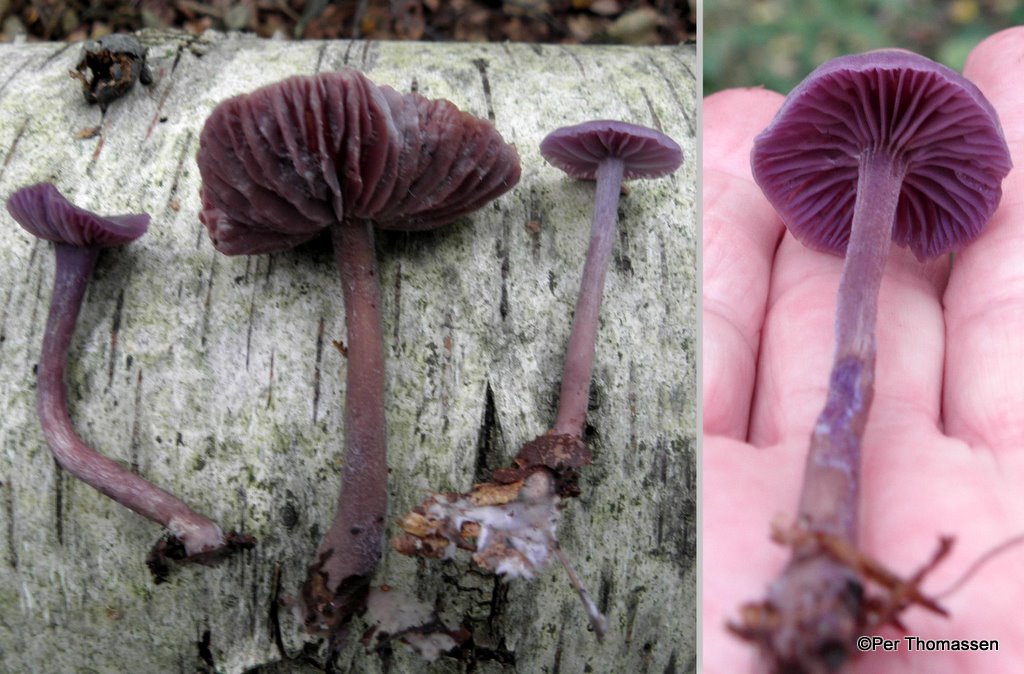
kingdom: Fungi
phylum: Basidiomycota
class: Agaricomycetes
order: Agaricales
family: Hydnangiaceae
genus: Laccaria
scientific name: Laccaria amethystina
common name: violet ametysthat
